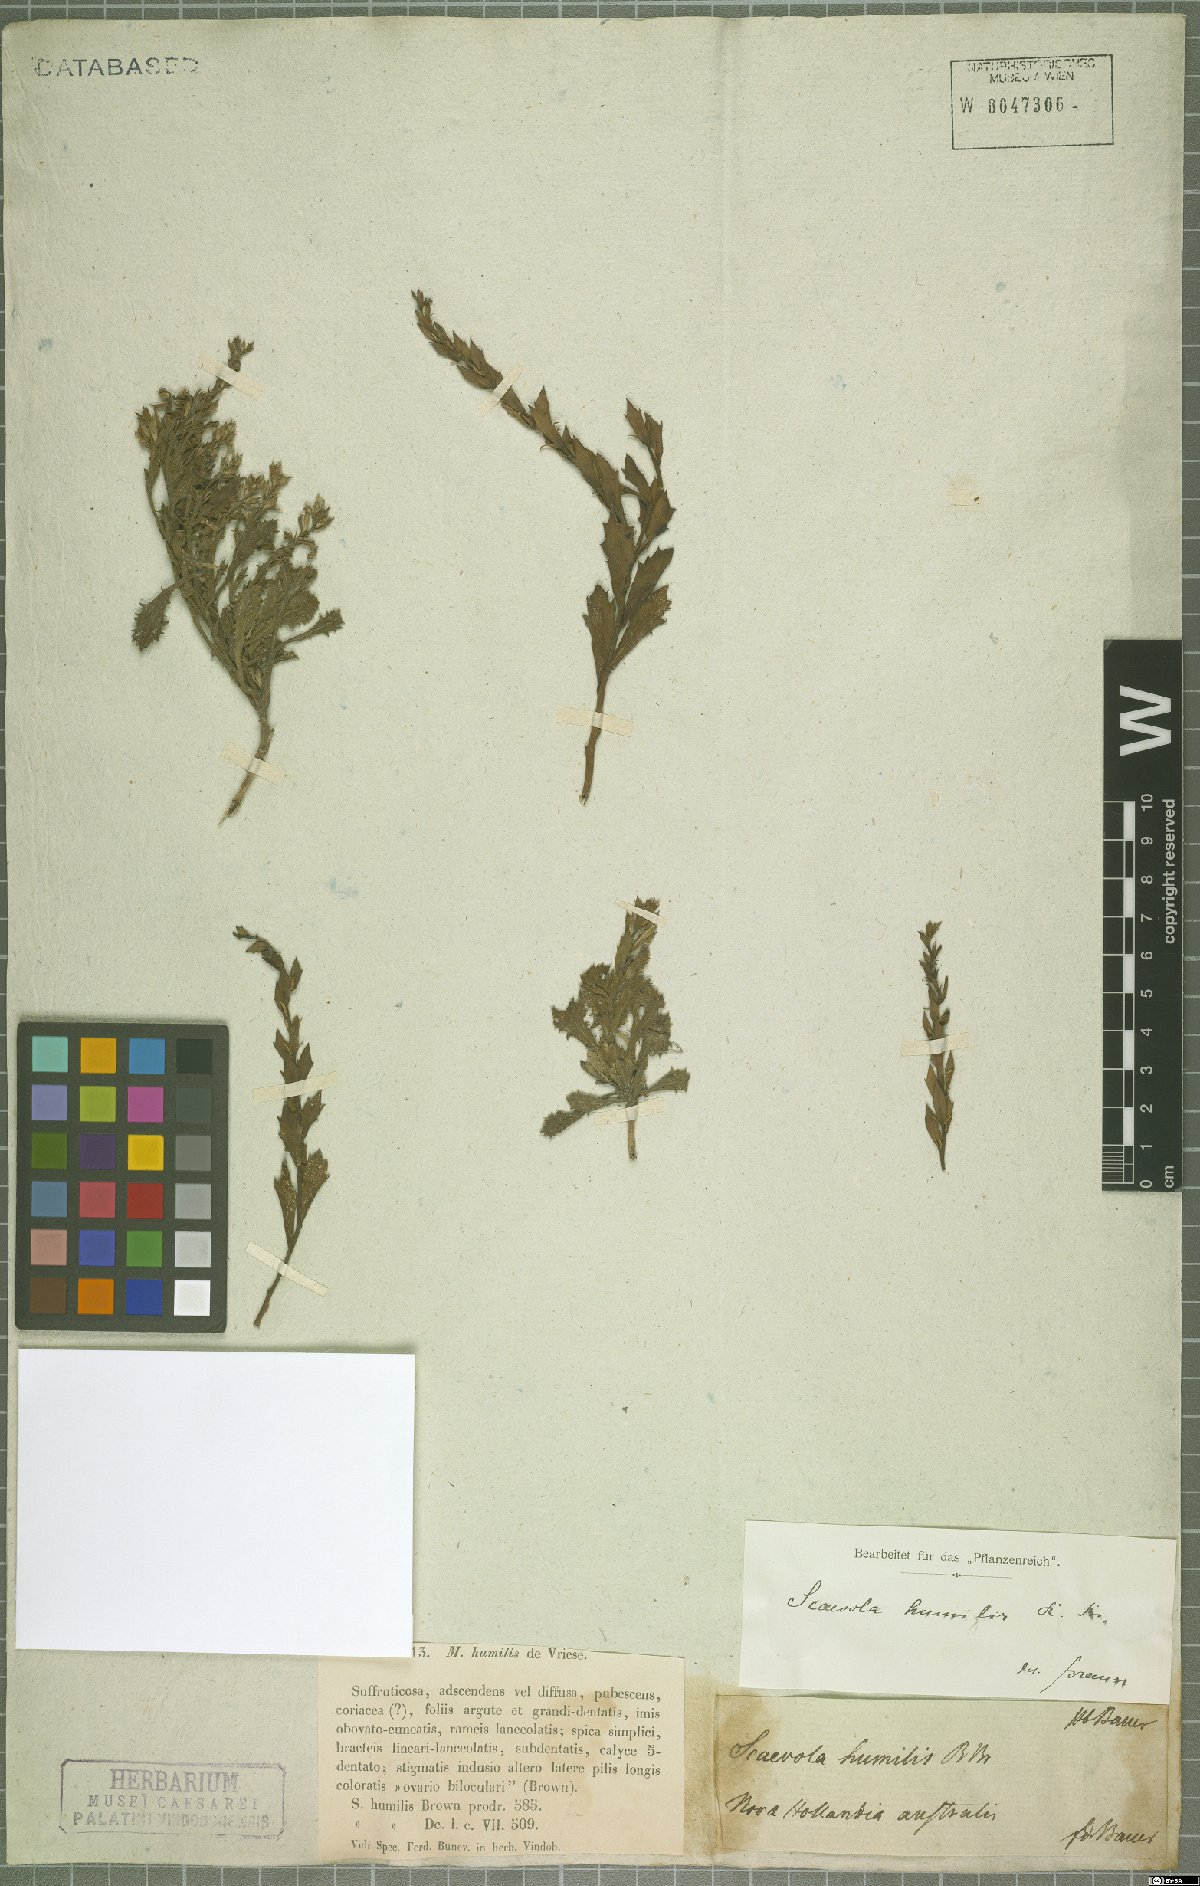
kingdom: Plantae
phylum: Tracheophyta
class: Magnoliopsida
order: Asterales
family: Goodeniaceae
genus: Scaevola
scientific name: Scaevola humilis
